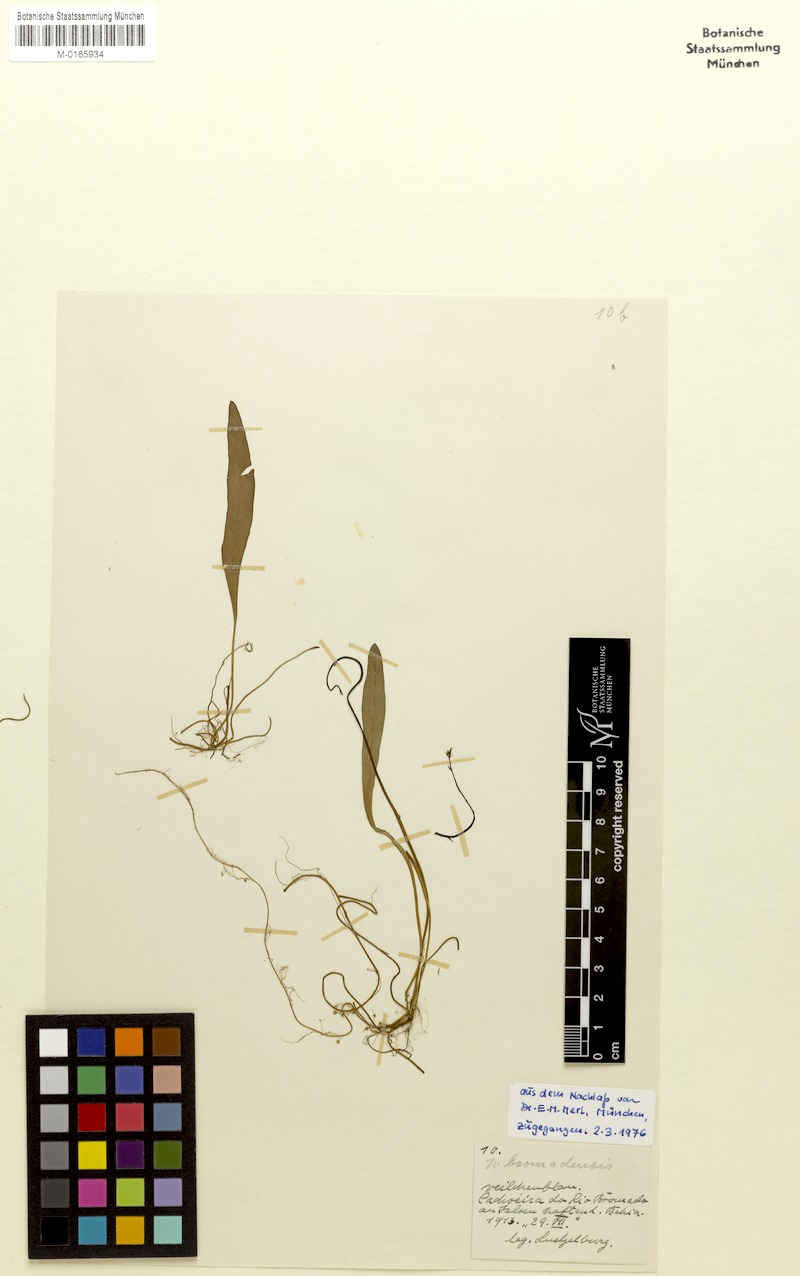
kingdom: Plantae
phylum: Tracheophyta
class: Magnoliopsida
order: Lamiales
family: Lentibulariaceae
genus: Utricularia
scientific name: Utricularia longifolia
